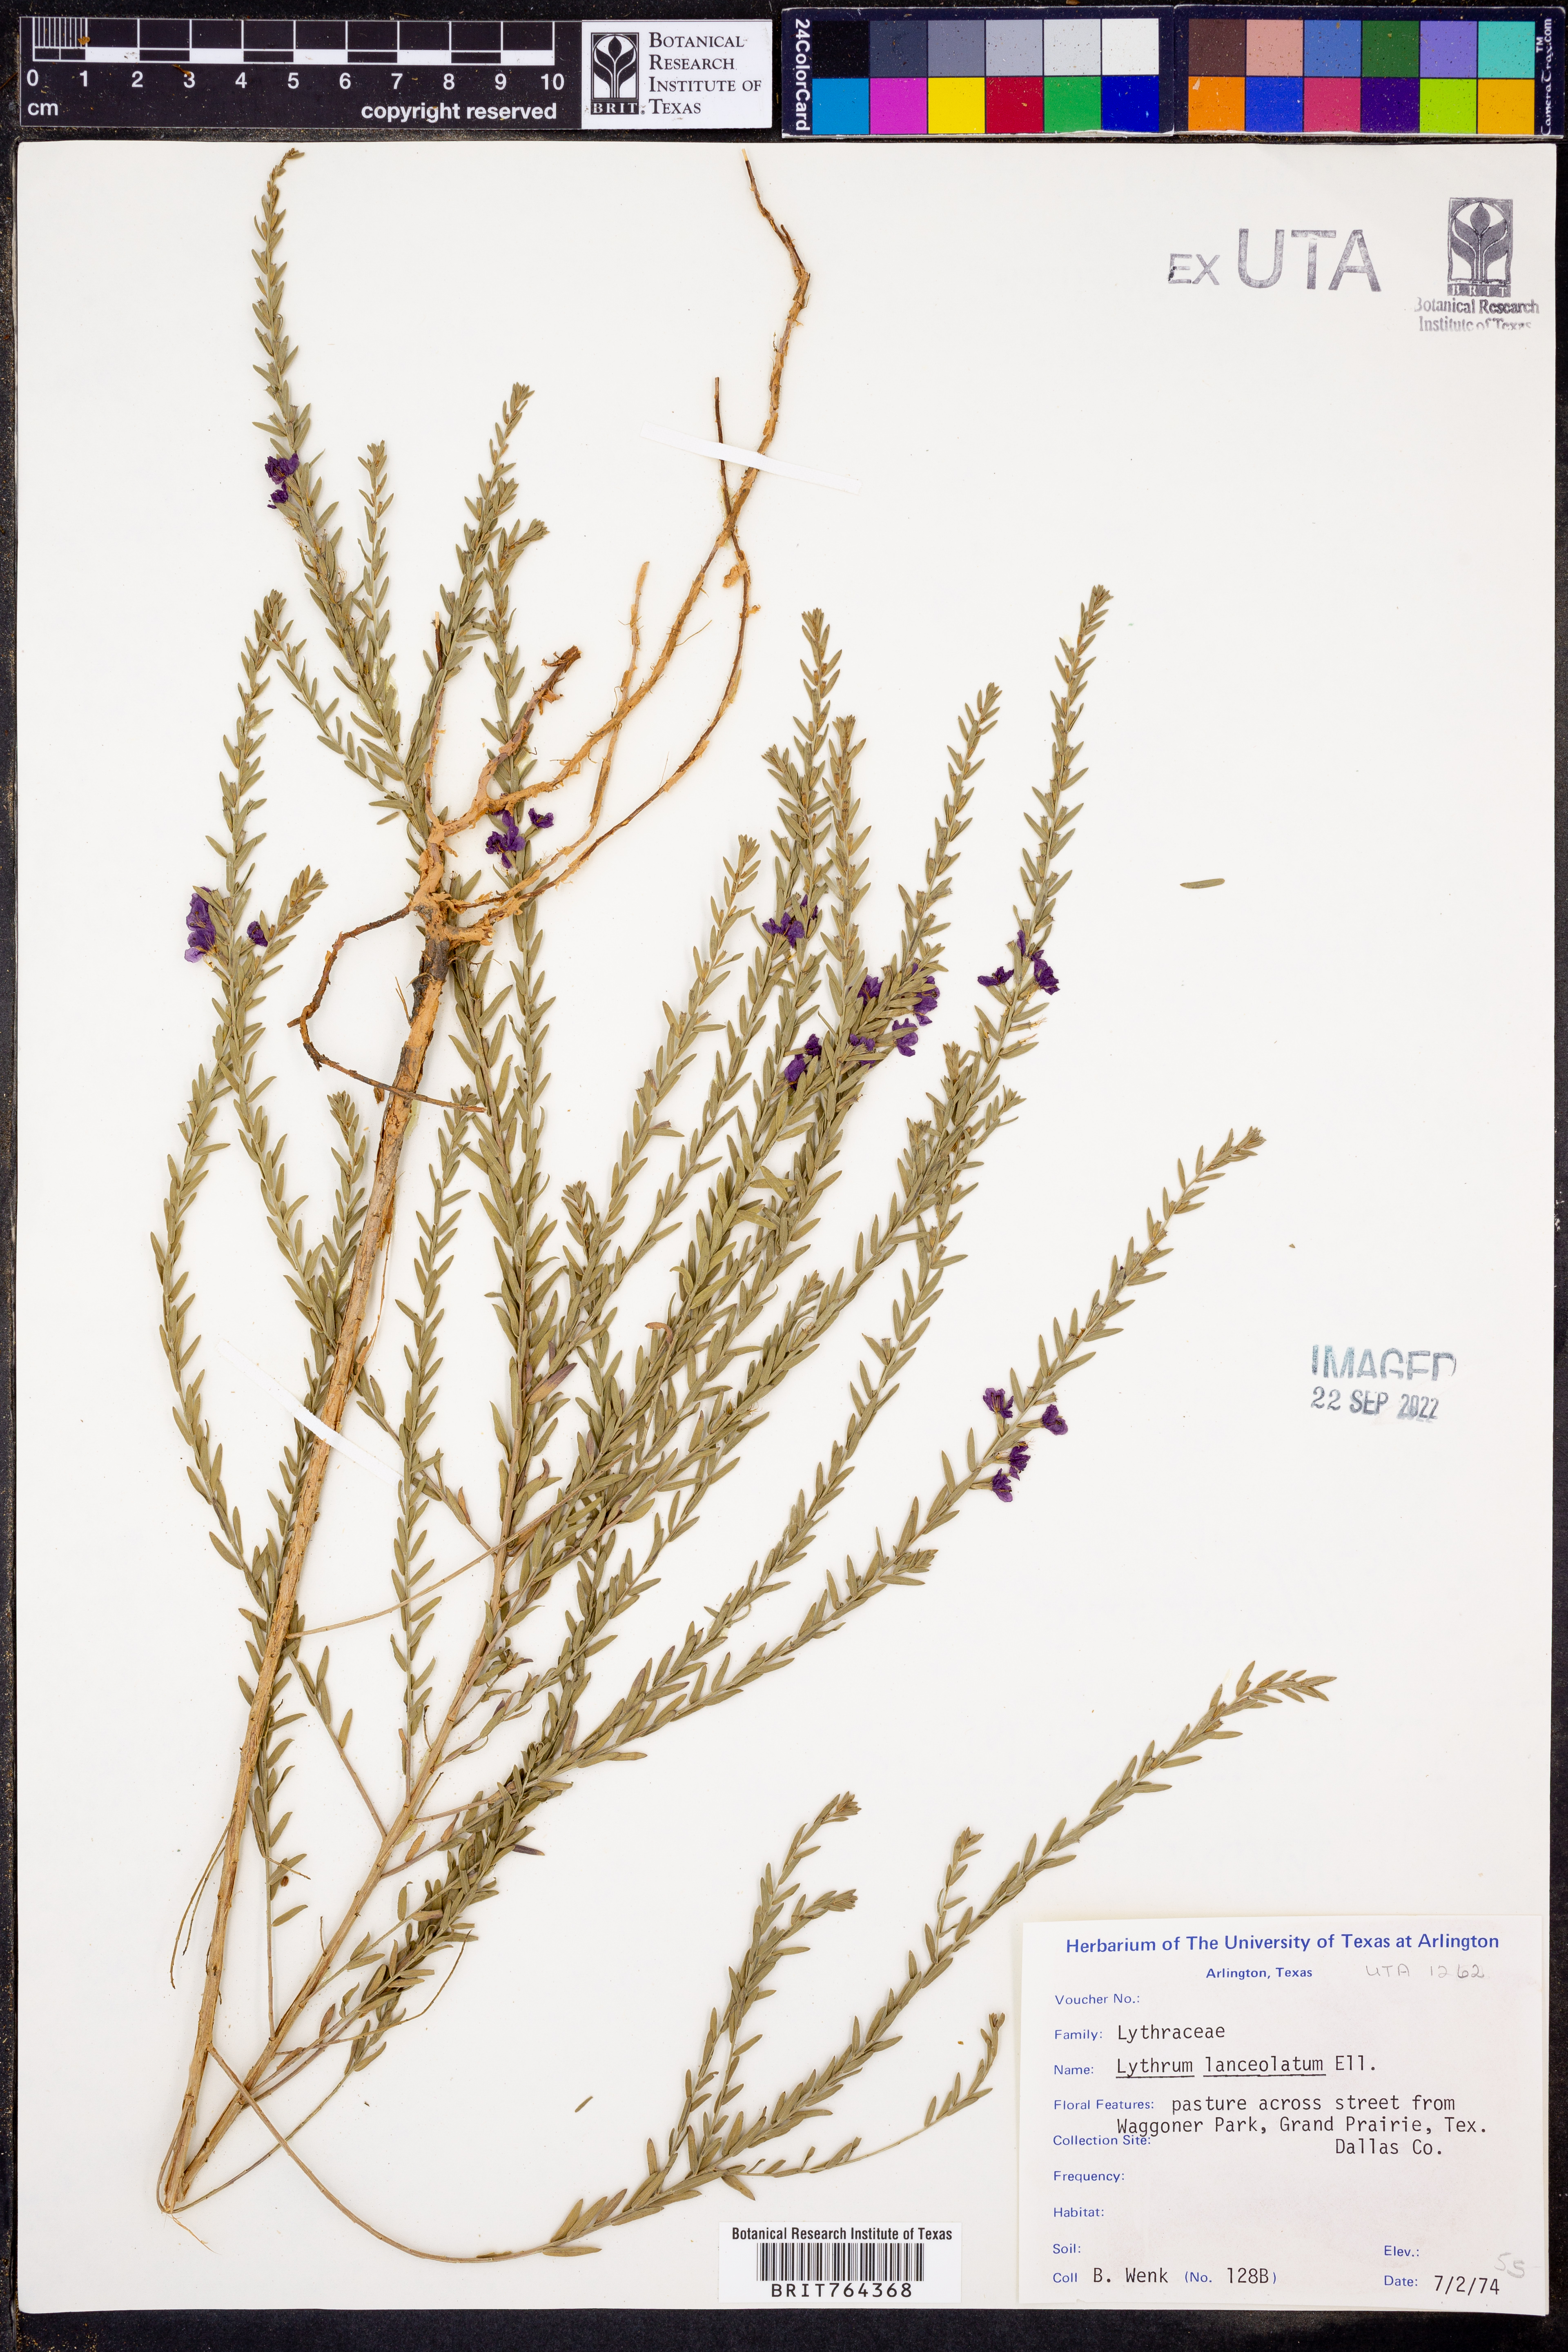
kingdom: Plantae
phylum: Tracheophyta
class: Magnoliopsida
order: Myrtales
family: Lythraceae
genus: Lythrum
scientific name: Lythrum alatum
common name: Winged loosestrife
